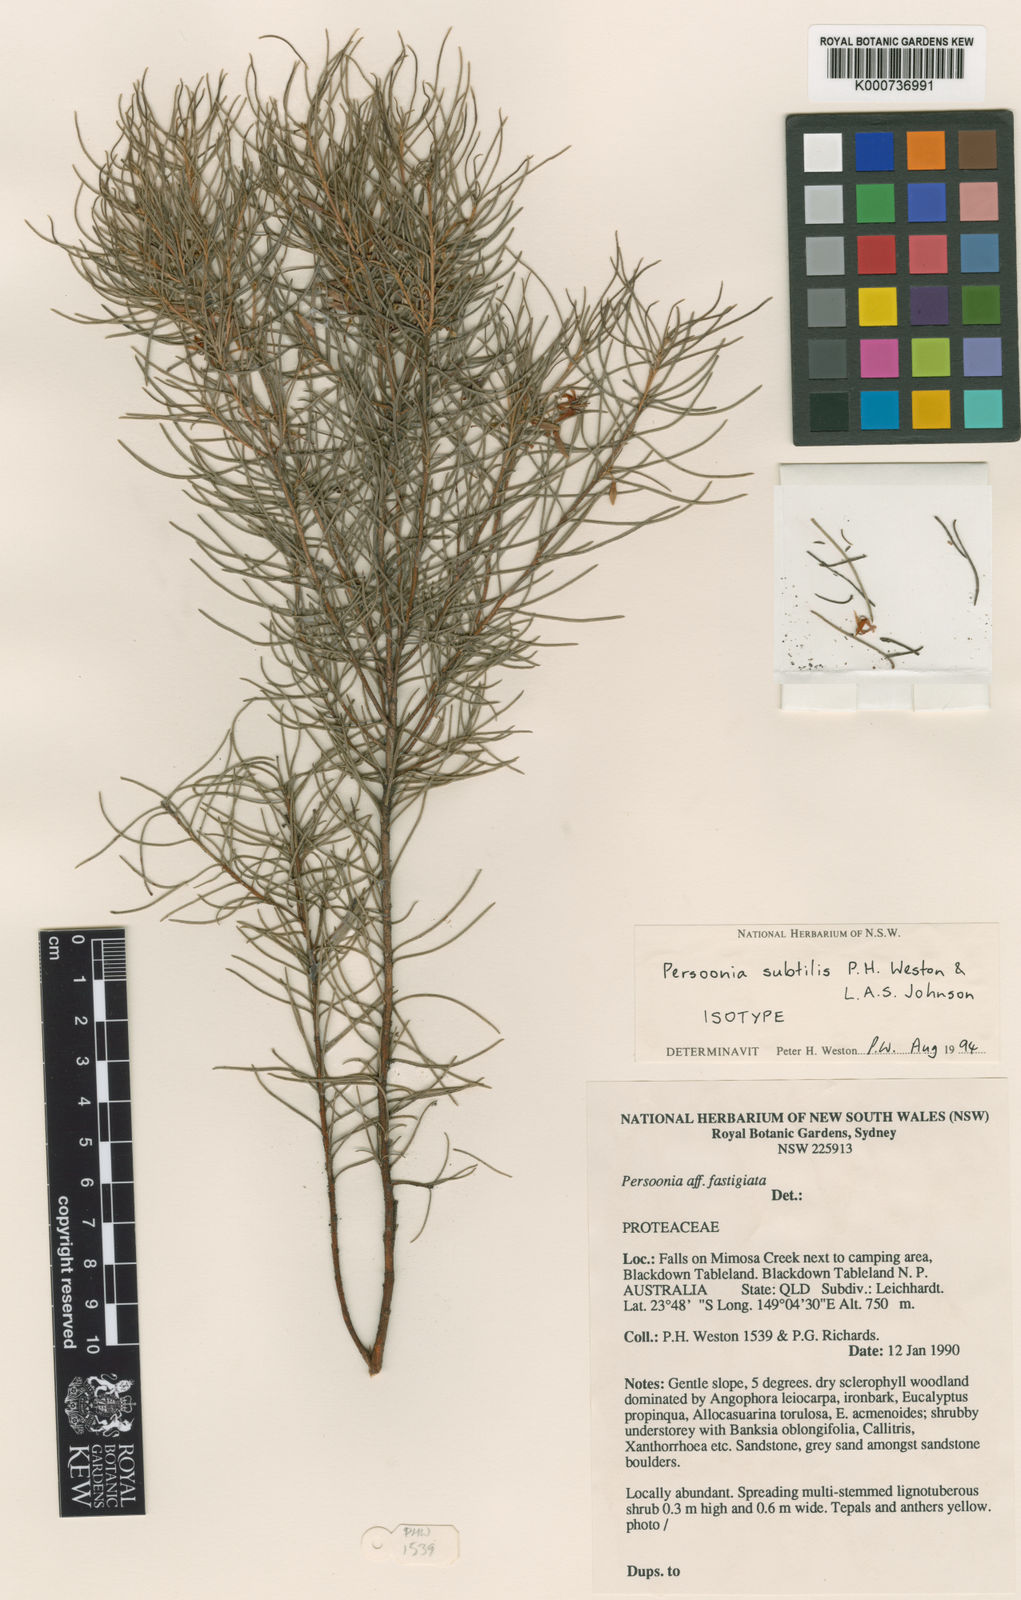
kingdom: Plantae
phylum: Tracheophyta
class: Magnoliopsida
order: Proteales
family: Proteaceae
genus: Persoonia
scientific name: Persoonia subtilis
